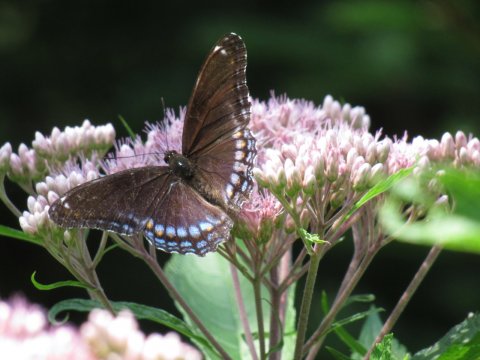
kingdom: Animalia
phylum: Arthropoda
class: Insecta
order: Lepidoptera
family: Nymphalidae
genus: Limenitis
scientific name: Limenitis arthemis
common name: Red-spotted Admiral
